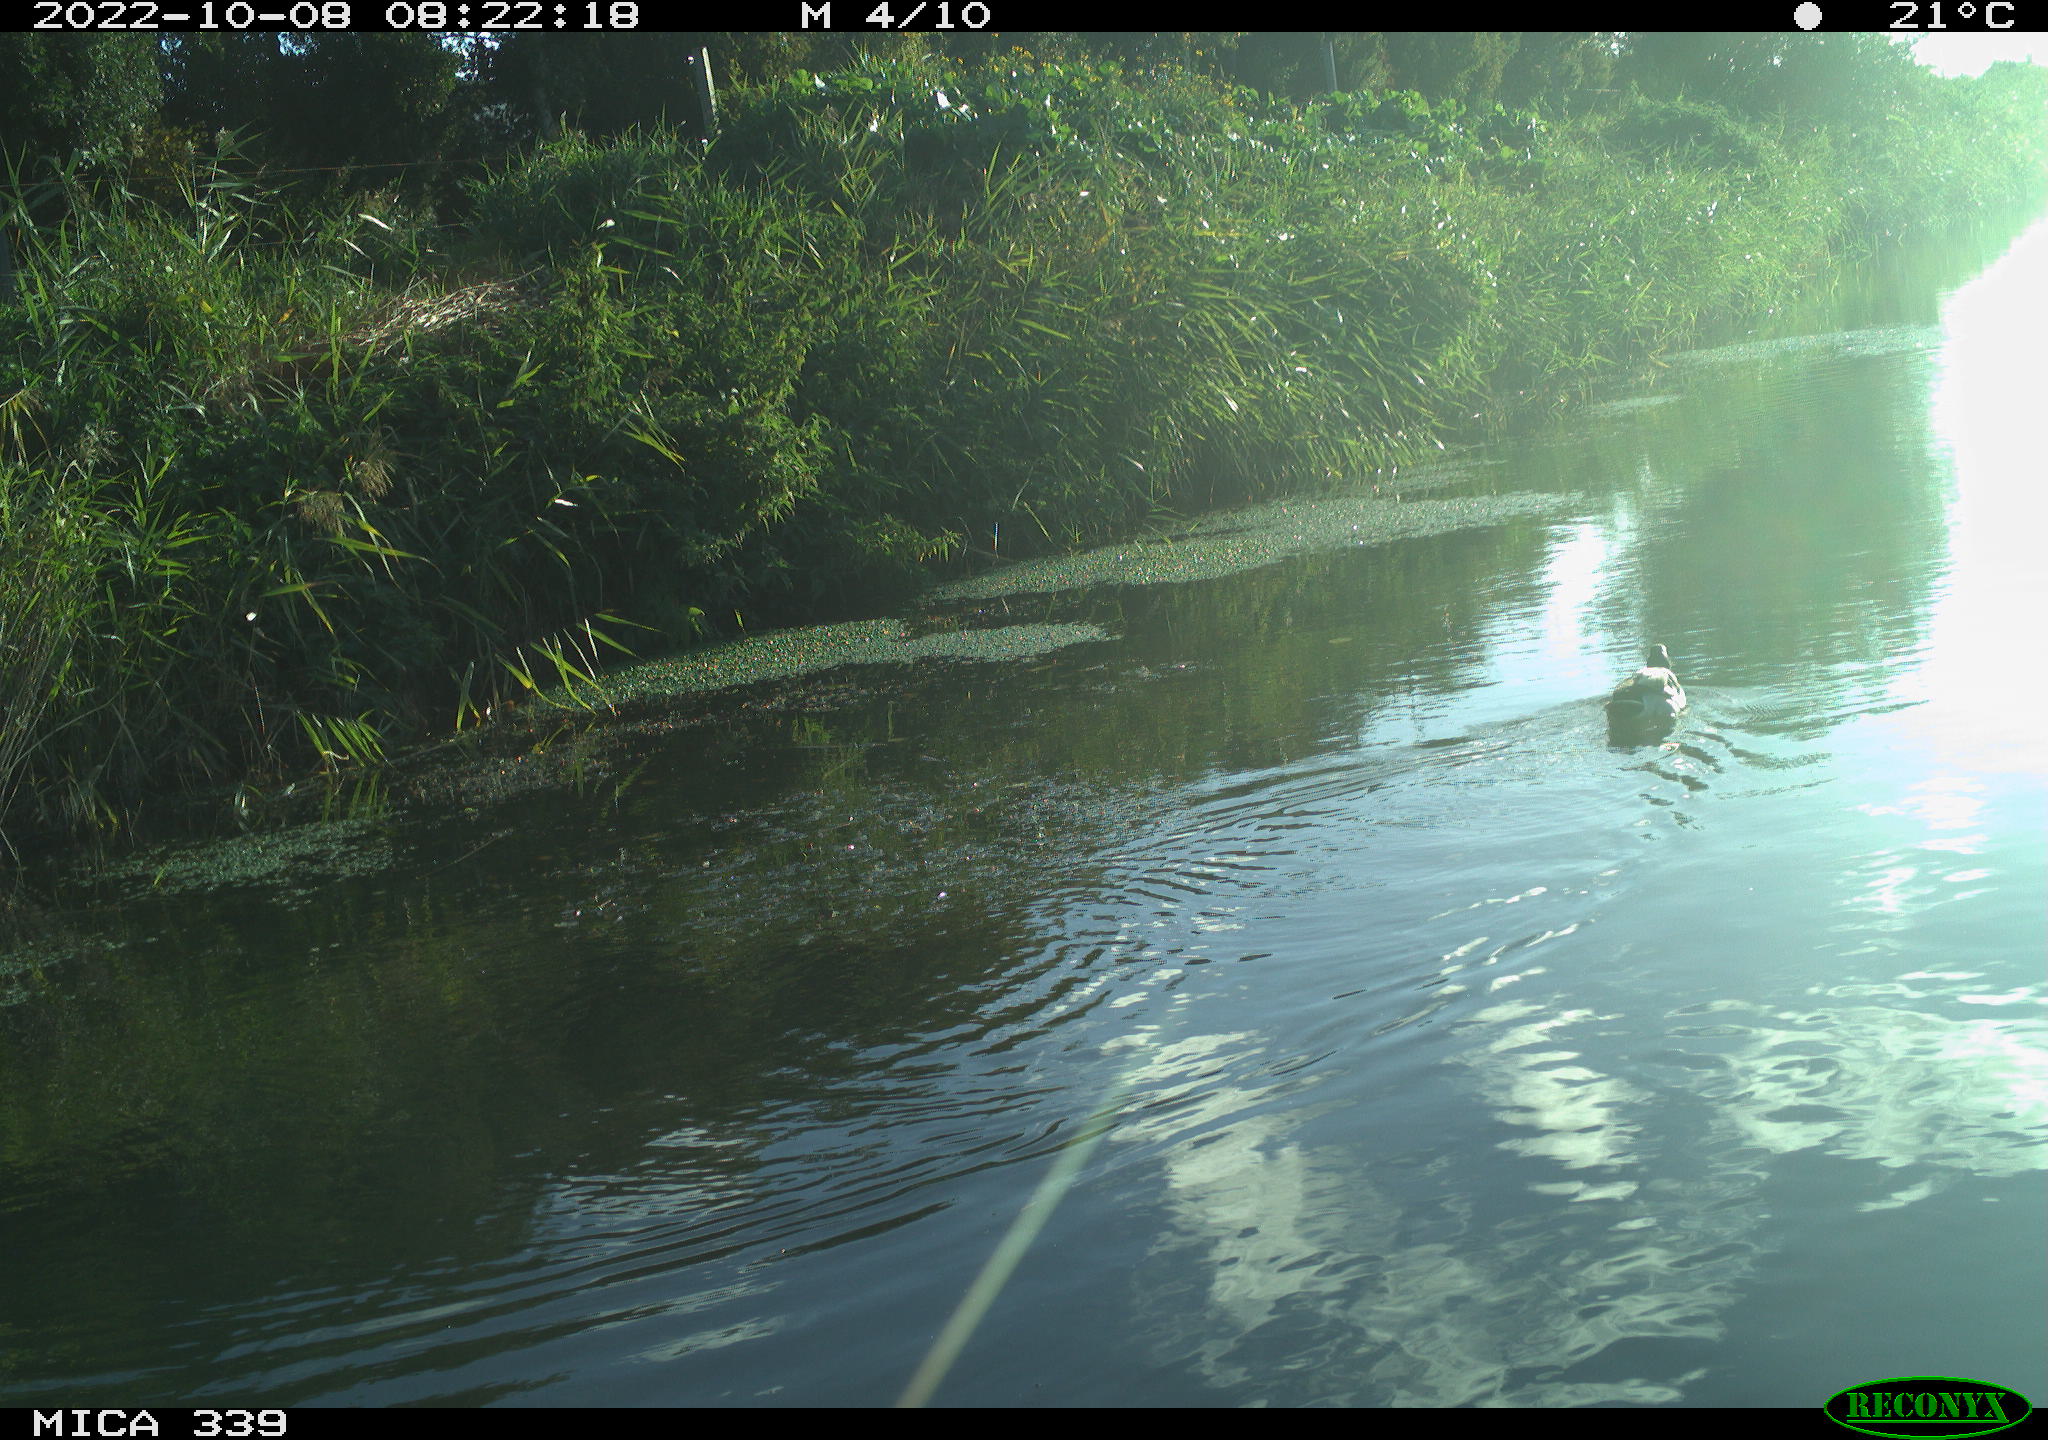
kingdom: Animalia
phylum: Chordata
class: Aves
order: Anseriformes
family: Anatidae
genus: Anas
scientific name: Anas platyrhynchos
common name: Mallard
